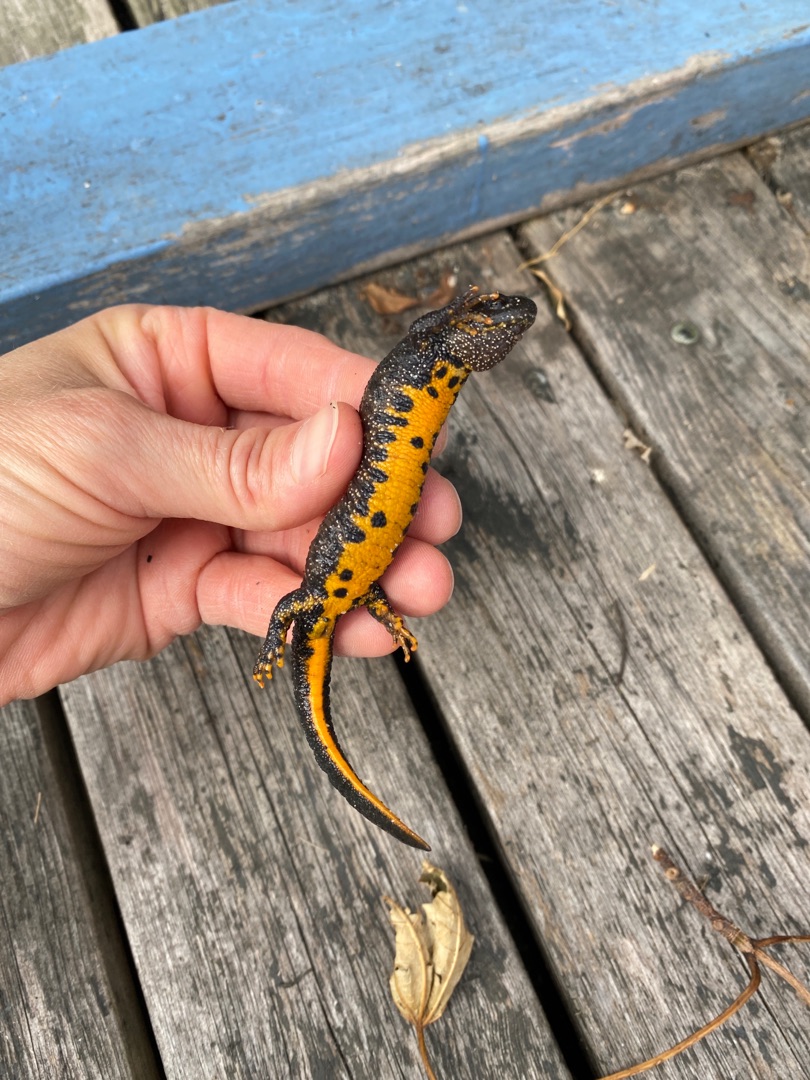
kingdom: Animalia
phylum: Chordata
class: Amphibia
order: Caudata
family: Salamandridae
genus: Triturus
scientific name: Triturus cristatus
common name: Stor vandsalamander
